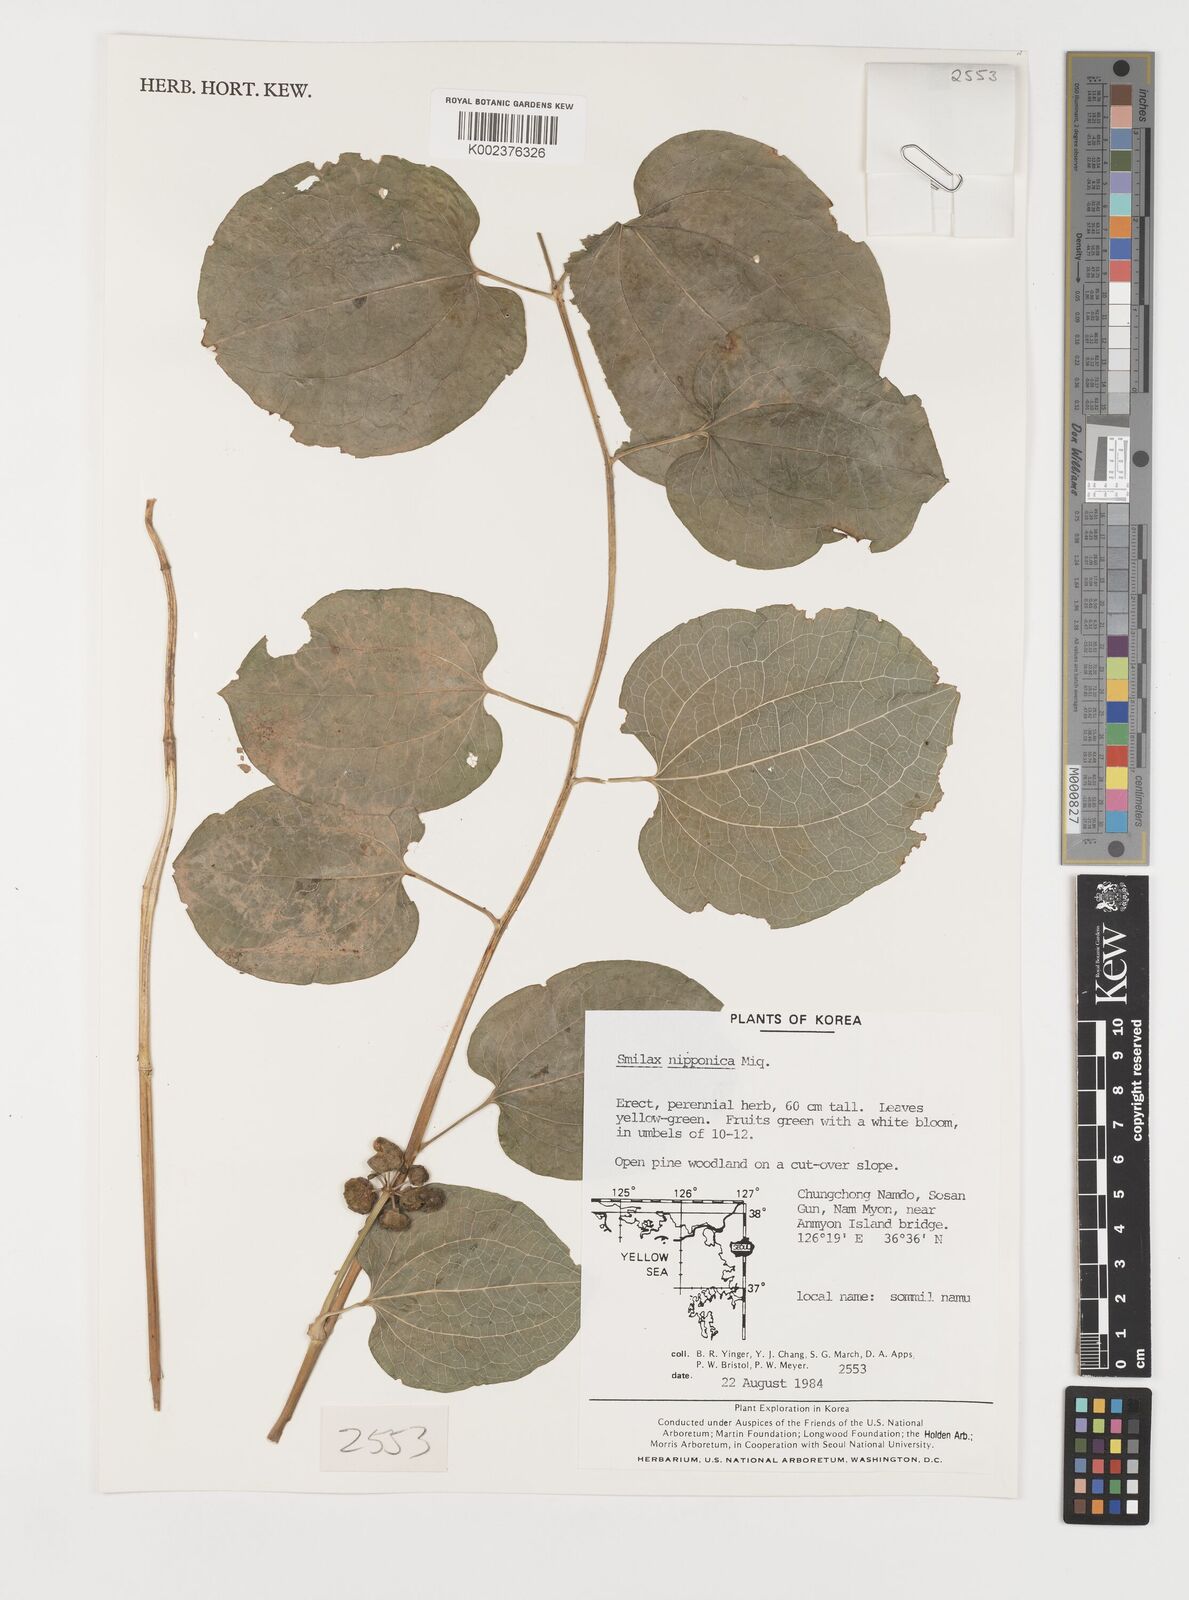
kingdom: Plantae
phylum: Tracheophyta
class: Liliopsida
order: Liliales
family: Smilacaceae
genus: Smilax
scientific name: Smilax nipponica
